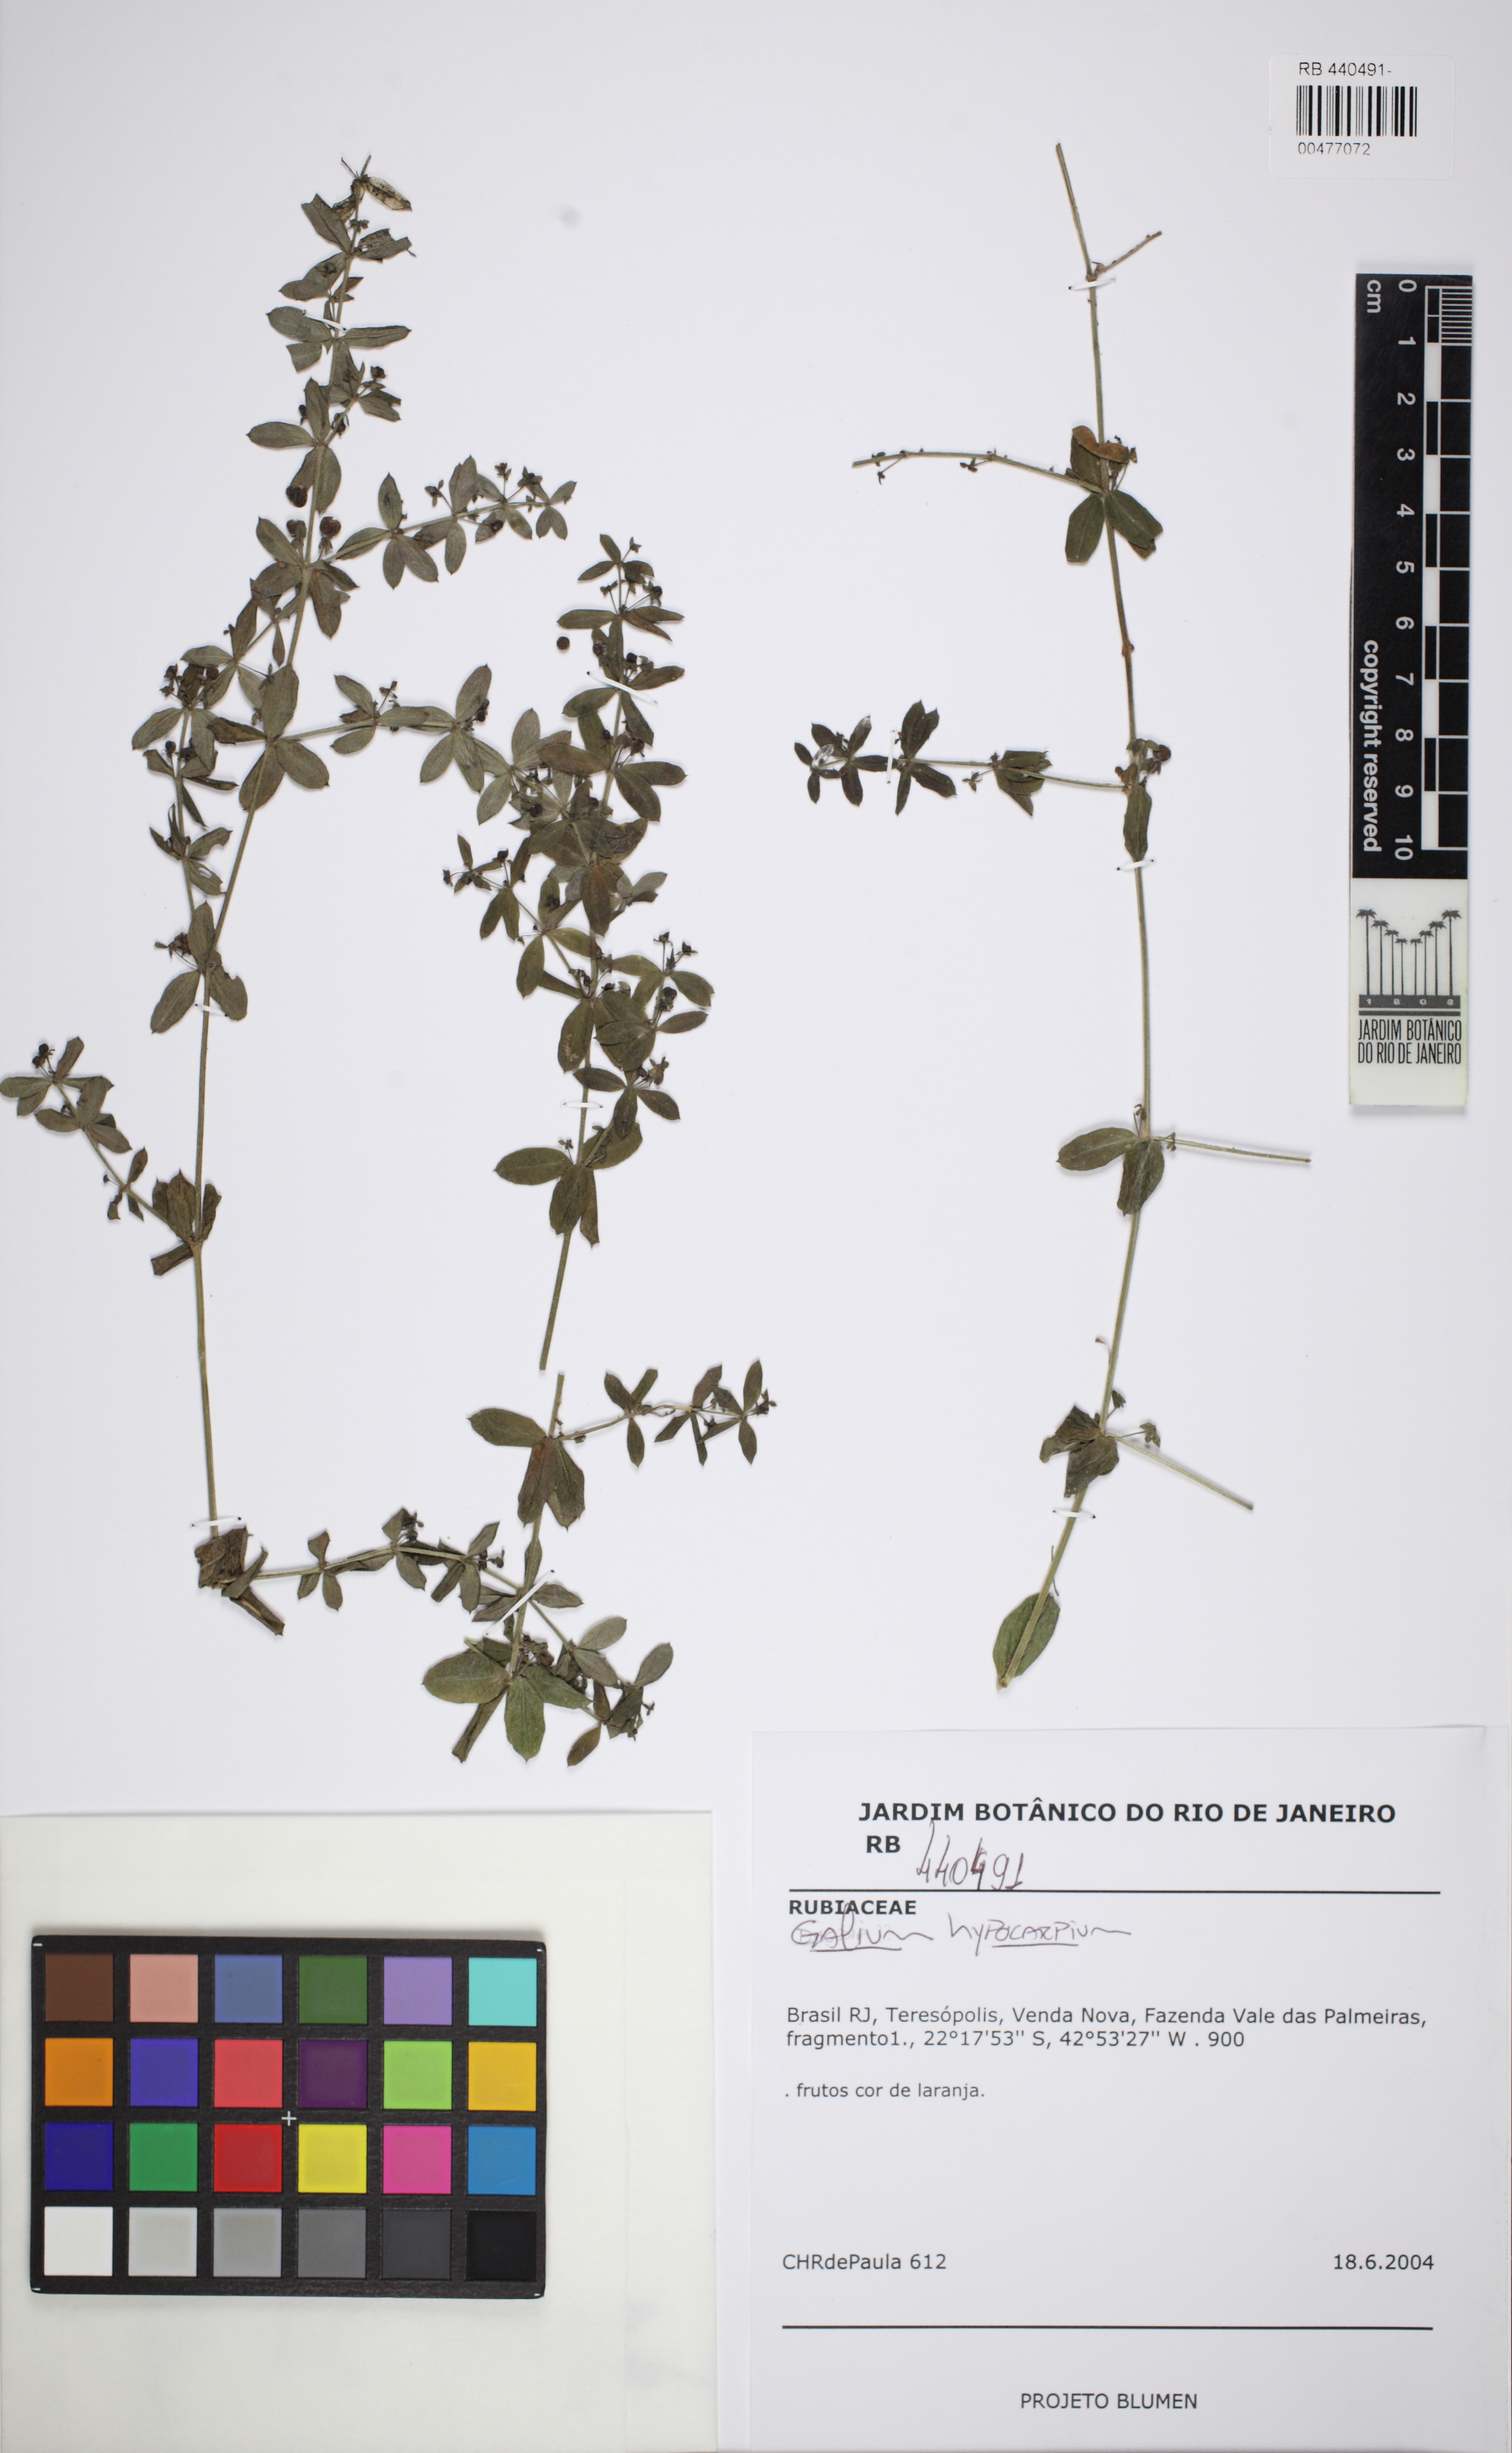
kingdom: Plantae
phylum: Tracheophyta
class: Magnoliopsida
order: Gentianales
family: Rubiaceae
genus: Galium
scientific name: Galium hypocarpium
